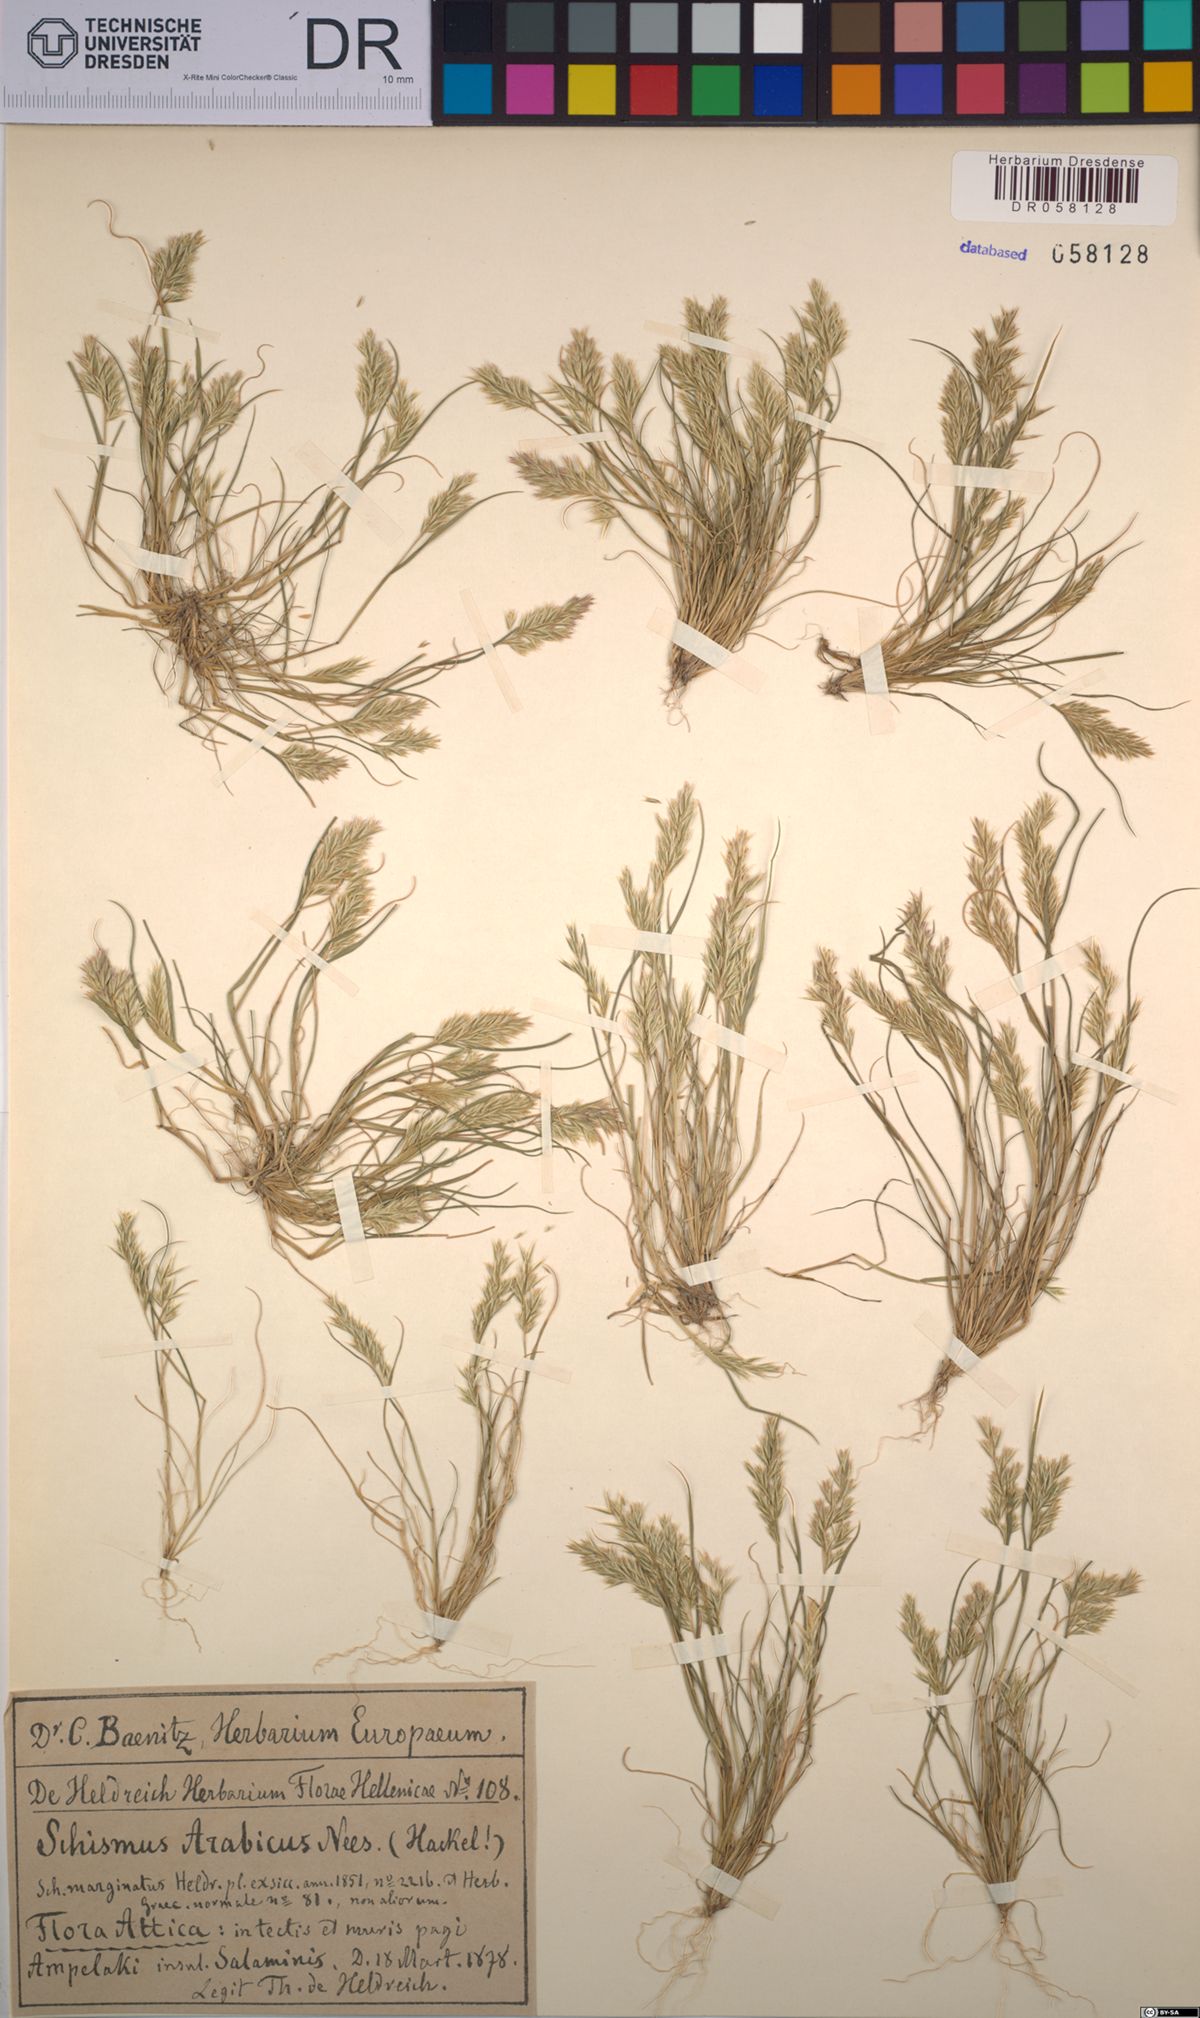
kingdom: Plantae
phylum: Tracheophyta
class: Liliopsida
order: Poales
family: Poaceae
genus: Schismus
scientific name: Schismus arabicus
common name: Arabian schismus
